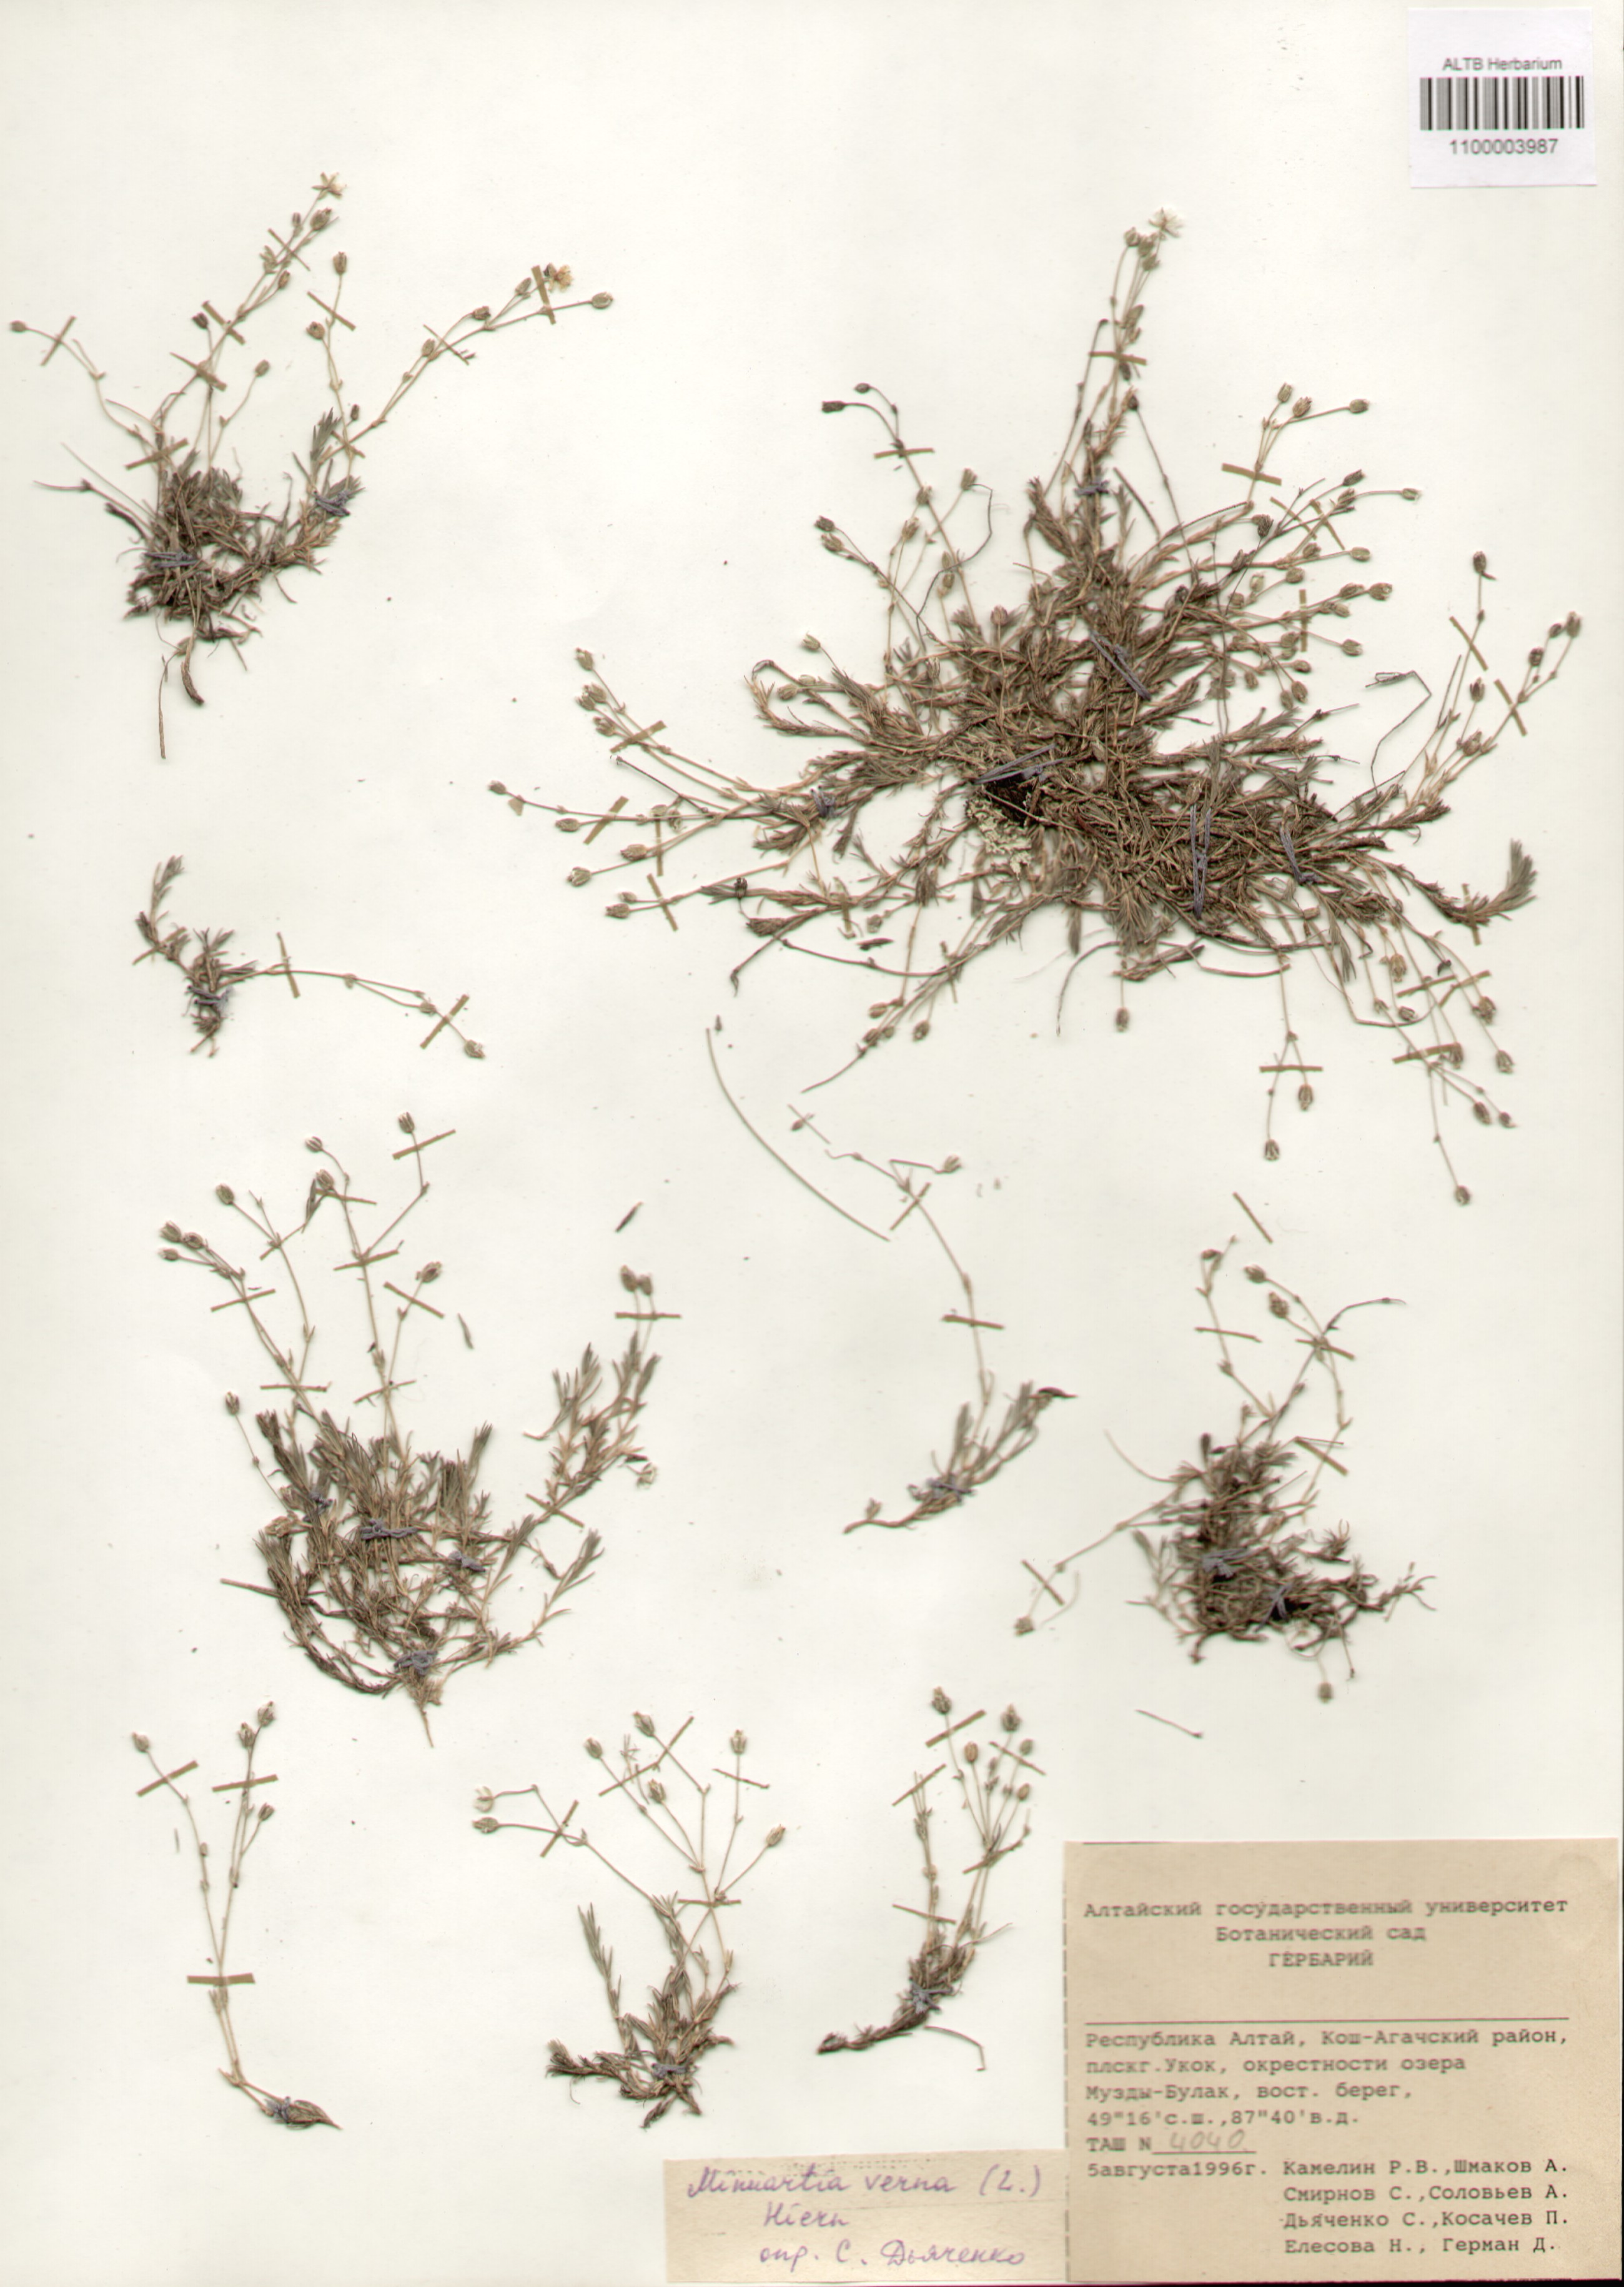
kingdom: Plantae
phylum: Tracheophyta
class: Magnoliopsida
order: Caryophyllales
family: Caryophyllaceae
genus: Sabulina
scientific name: Sabulina verna
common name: Spring sandwort
